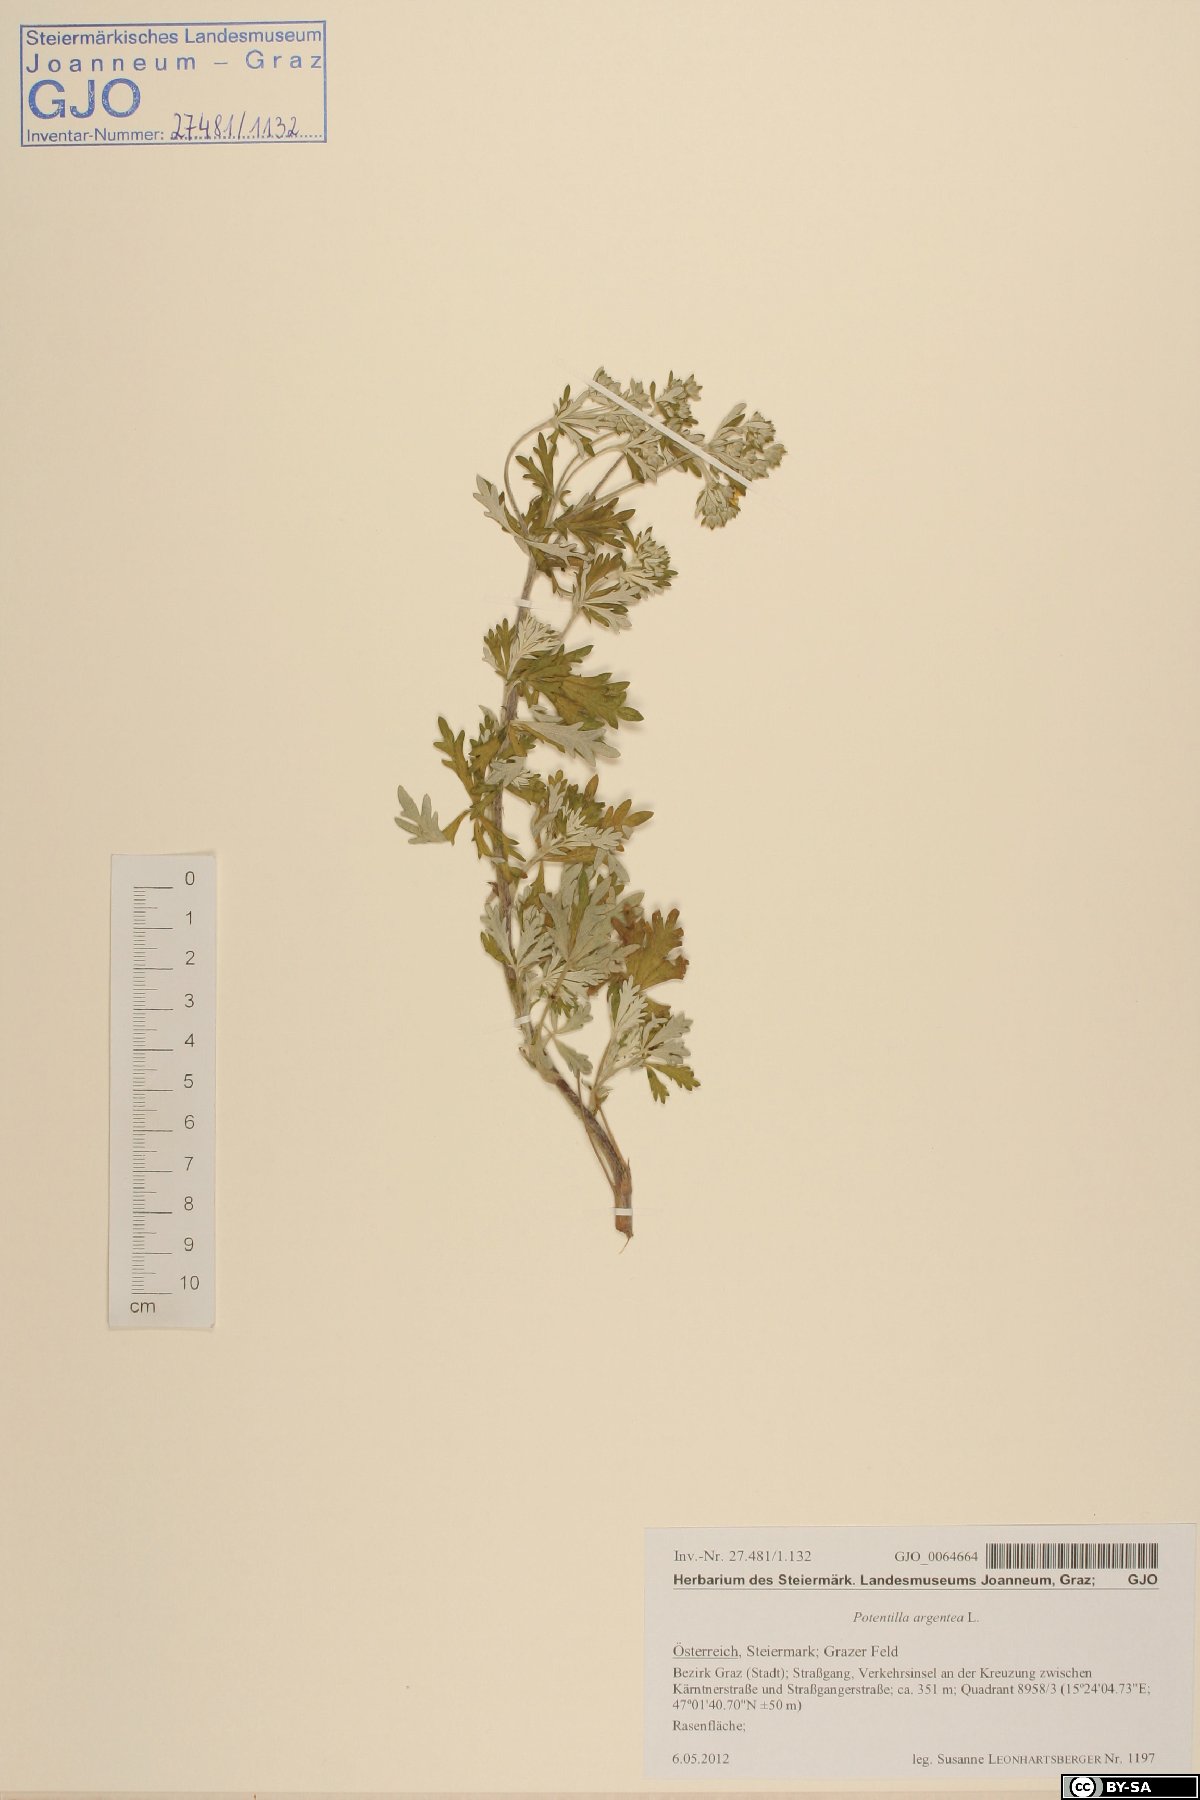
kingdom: Plantae
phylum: Tracheophyta
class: Magnoliopsida
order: Rosales
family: Rosaceae
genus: Potentilla
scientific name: Potentilla argentea
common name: Hoary cinquefoil
